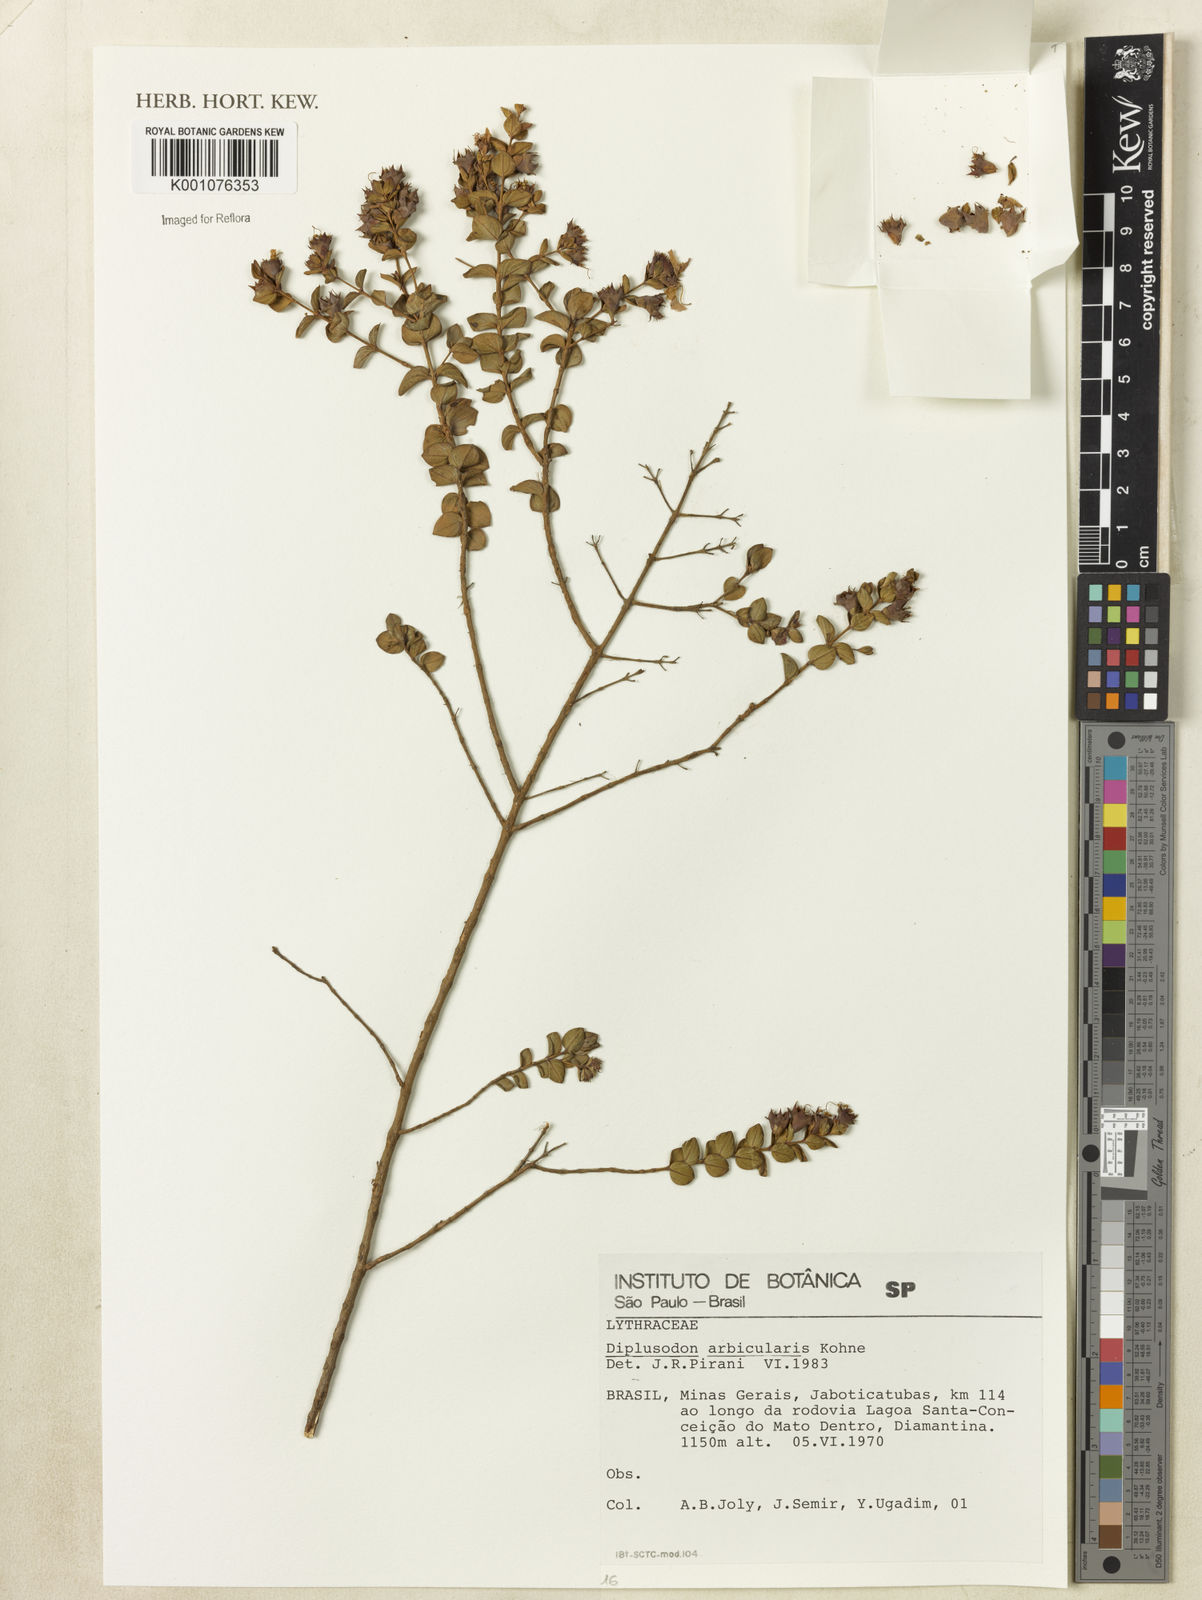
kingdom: Plantae
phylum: Tracheophyta
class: Magnoliopsida
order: Myrtales
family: Lythraceae
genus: Diplusodon
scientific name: Diplusodon
